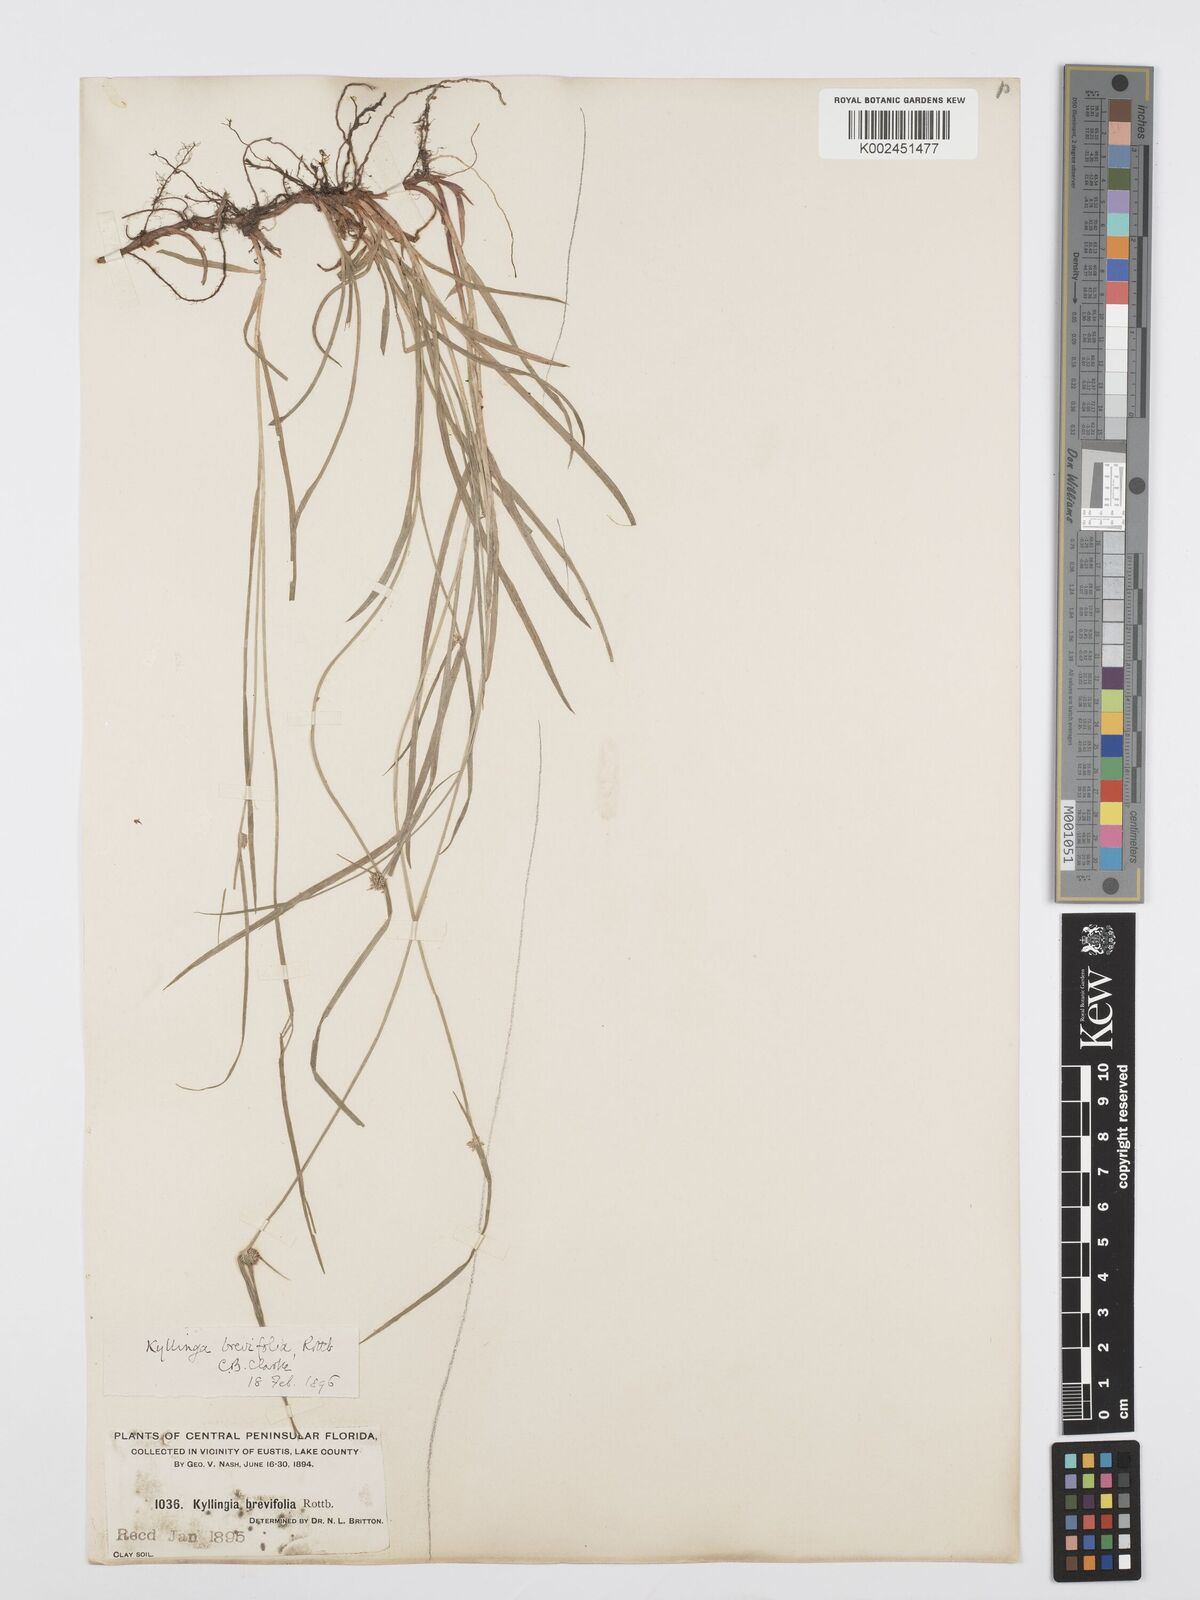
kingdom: Plantae
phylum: Tracheophyta
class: Liliopsida
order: Poales
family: Cyperaceae
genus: Cyperus
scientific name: Cyperus brevifolius
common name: Globe kyllinga
